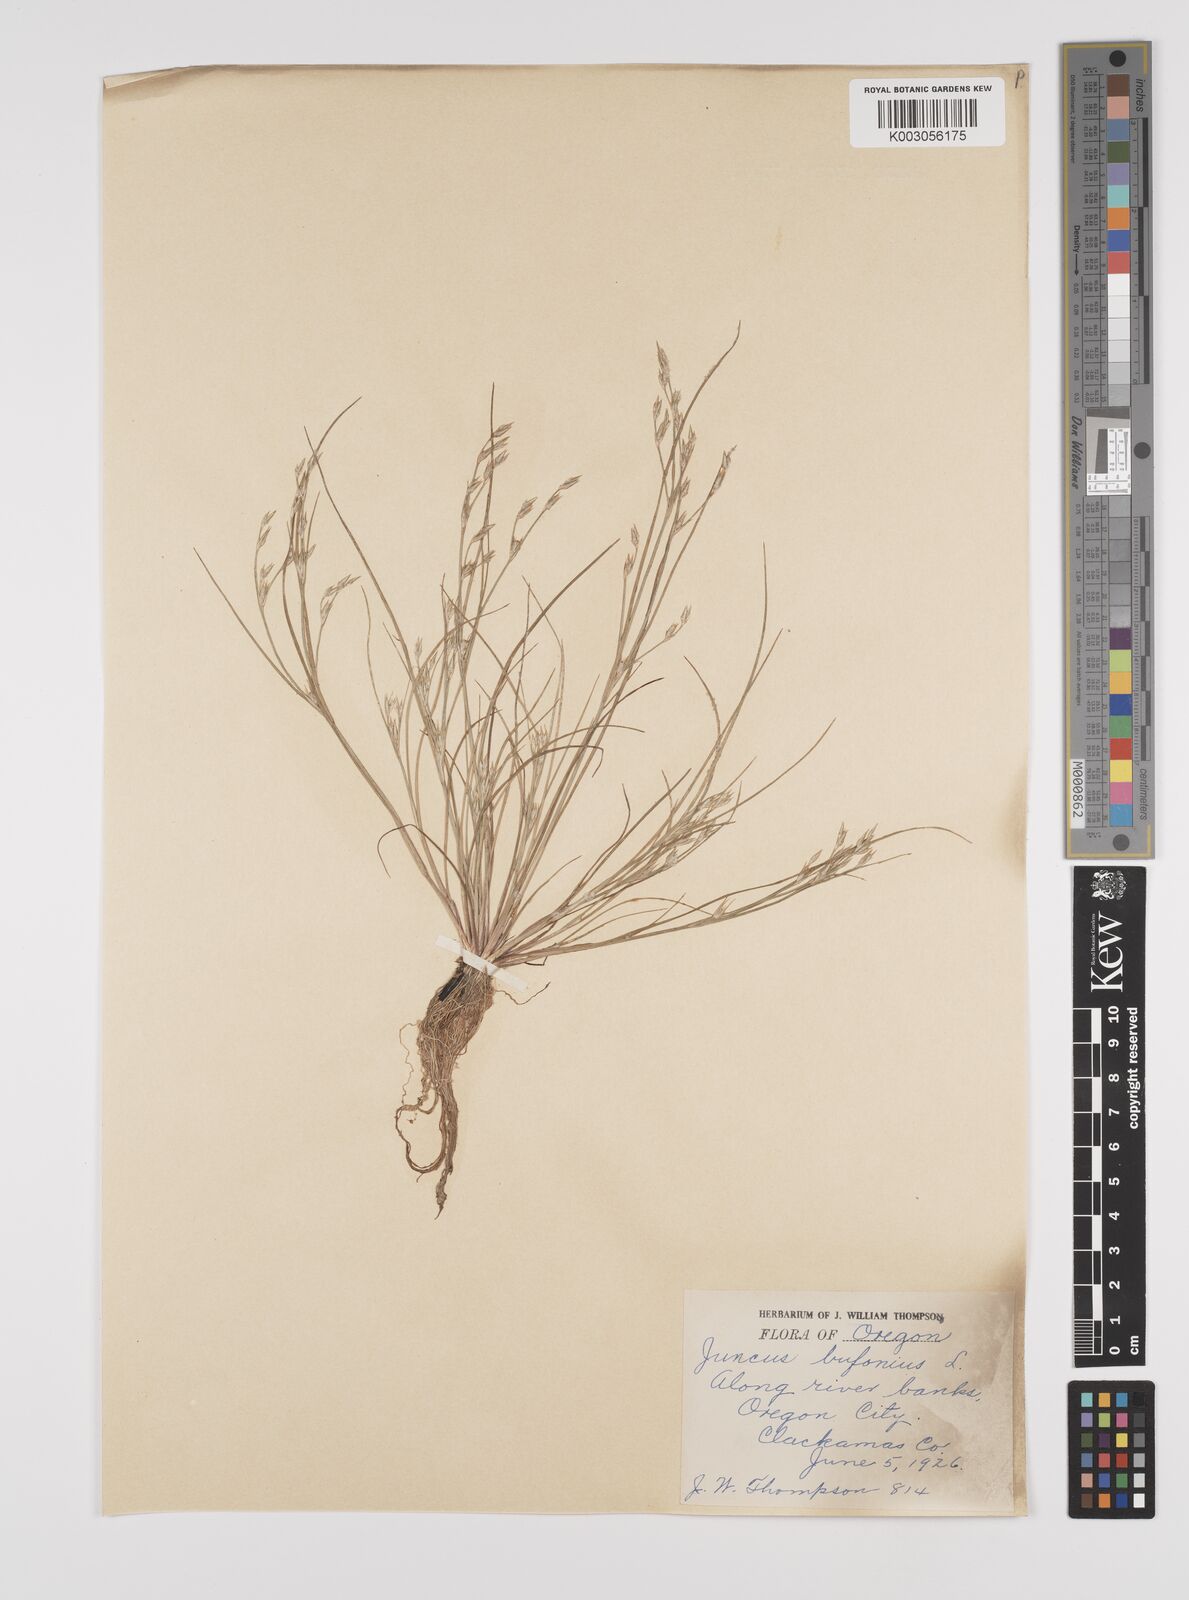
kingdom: Plantae
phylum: Tracheophyta
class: Liliopsida
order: Poales
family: Juncaceae
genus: Juncus
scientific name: Juncus bufonius
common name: Toad rush
